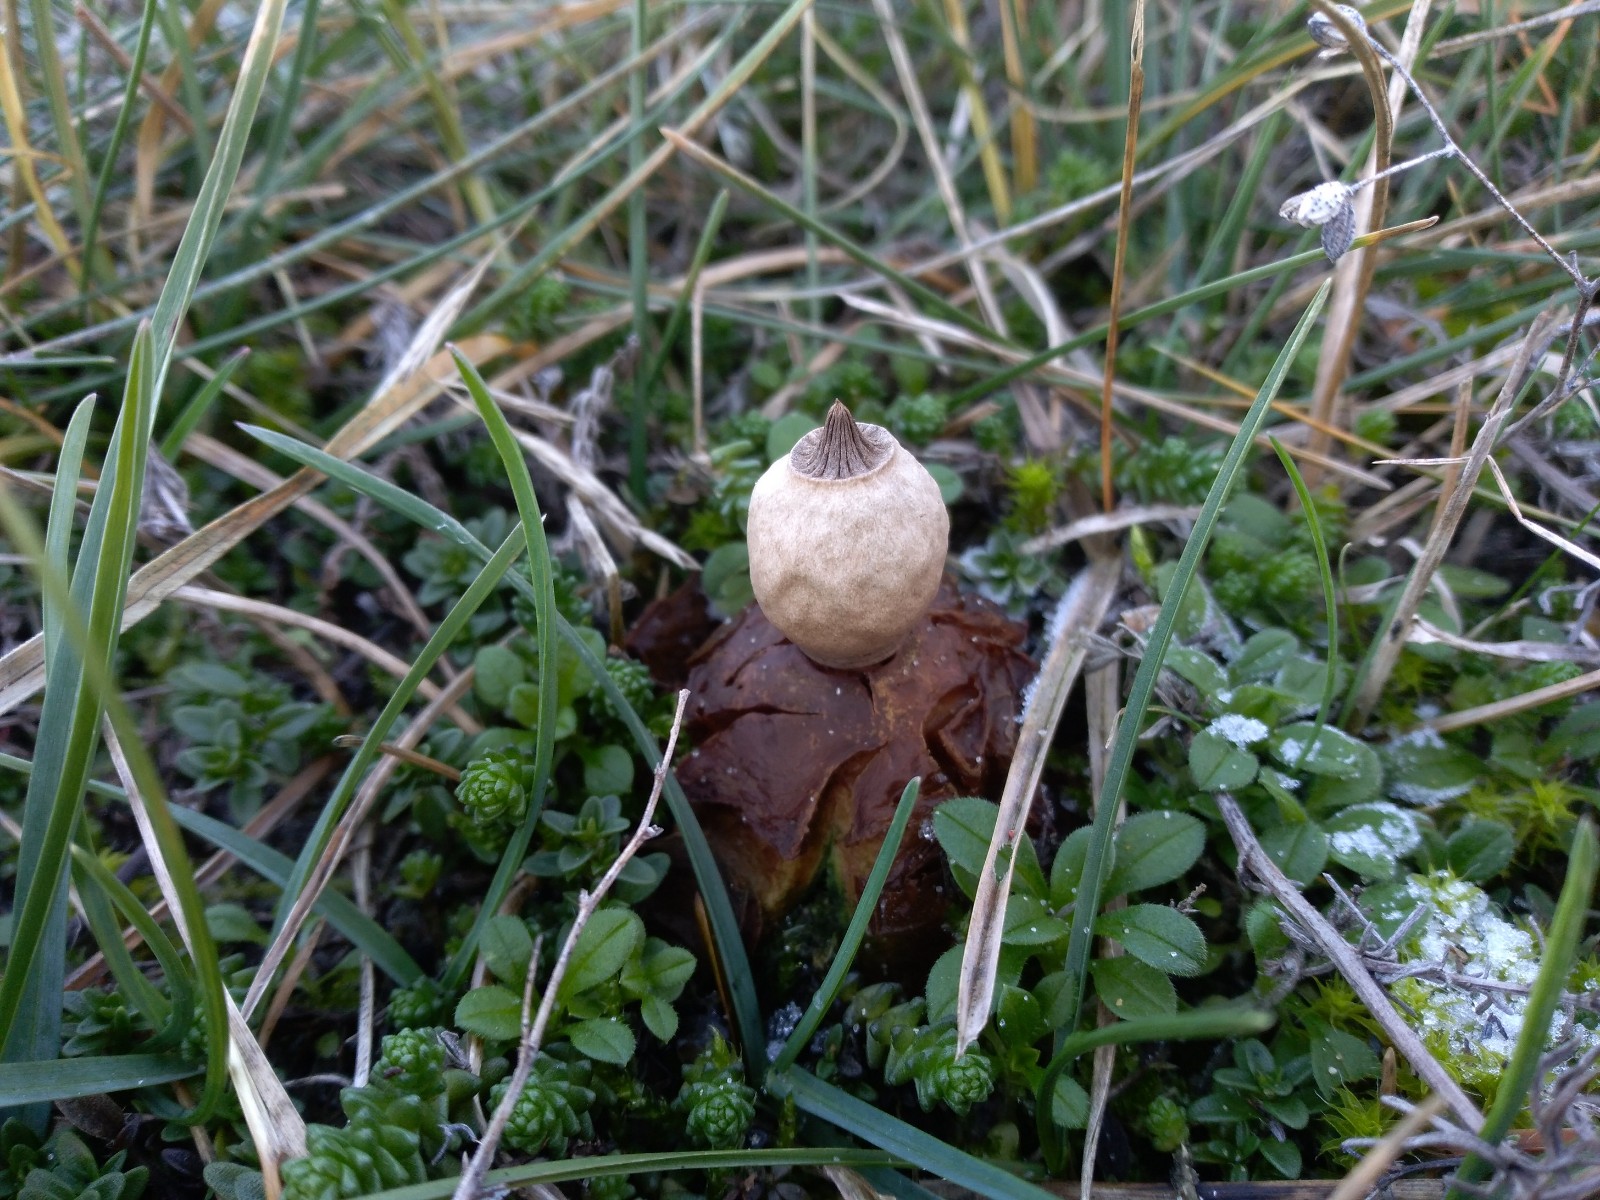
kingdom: Fungi
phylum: Basidiomycota
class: Agaricomycetes
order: Geastrales
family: Geastraceae
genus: Geastrum
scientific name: Geastrum striatum
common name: dværg-stjernebold
